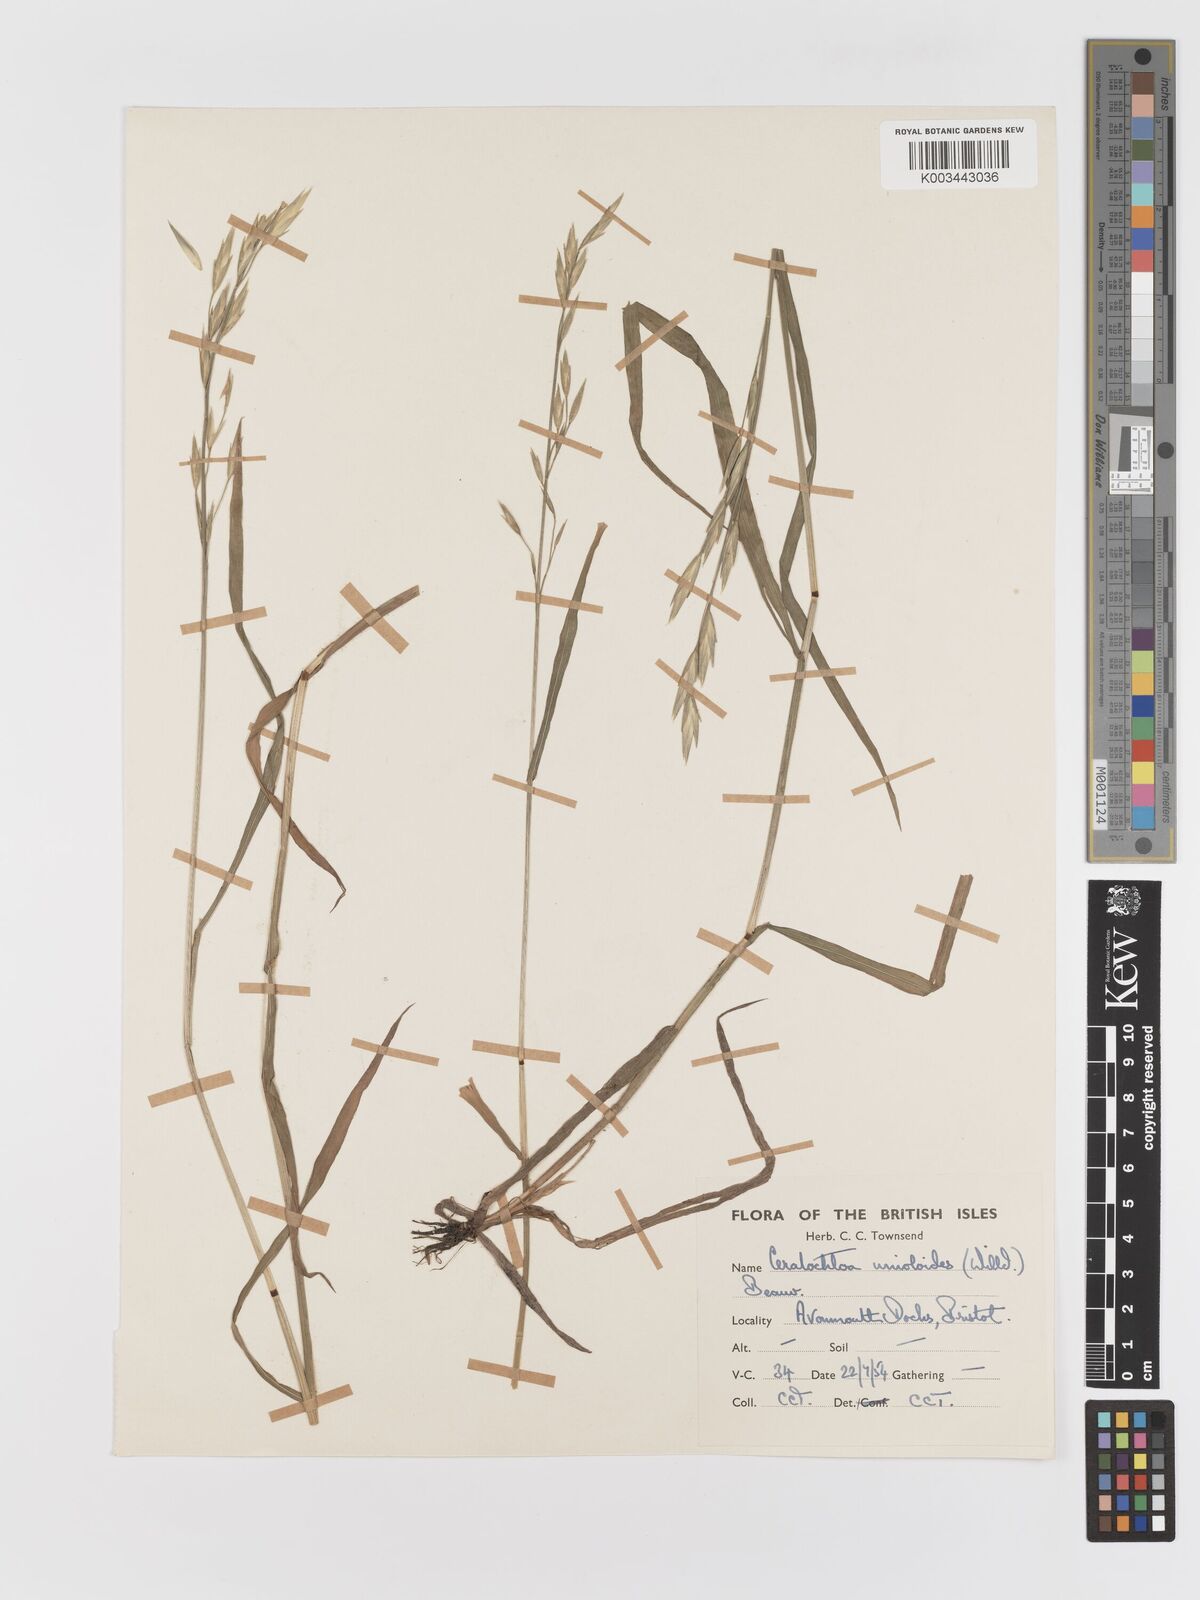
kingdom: Plantae
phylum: Tracheophyta
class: Liliopsida
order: Poales
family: Poaceae
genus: Bromus
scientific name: Bromus catharticus
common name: Rescuegrass
